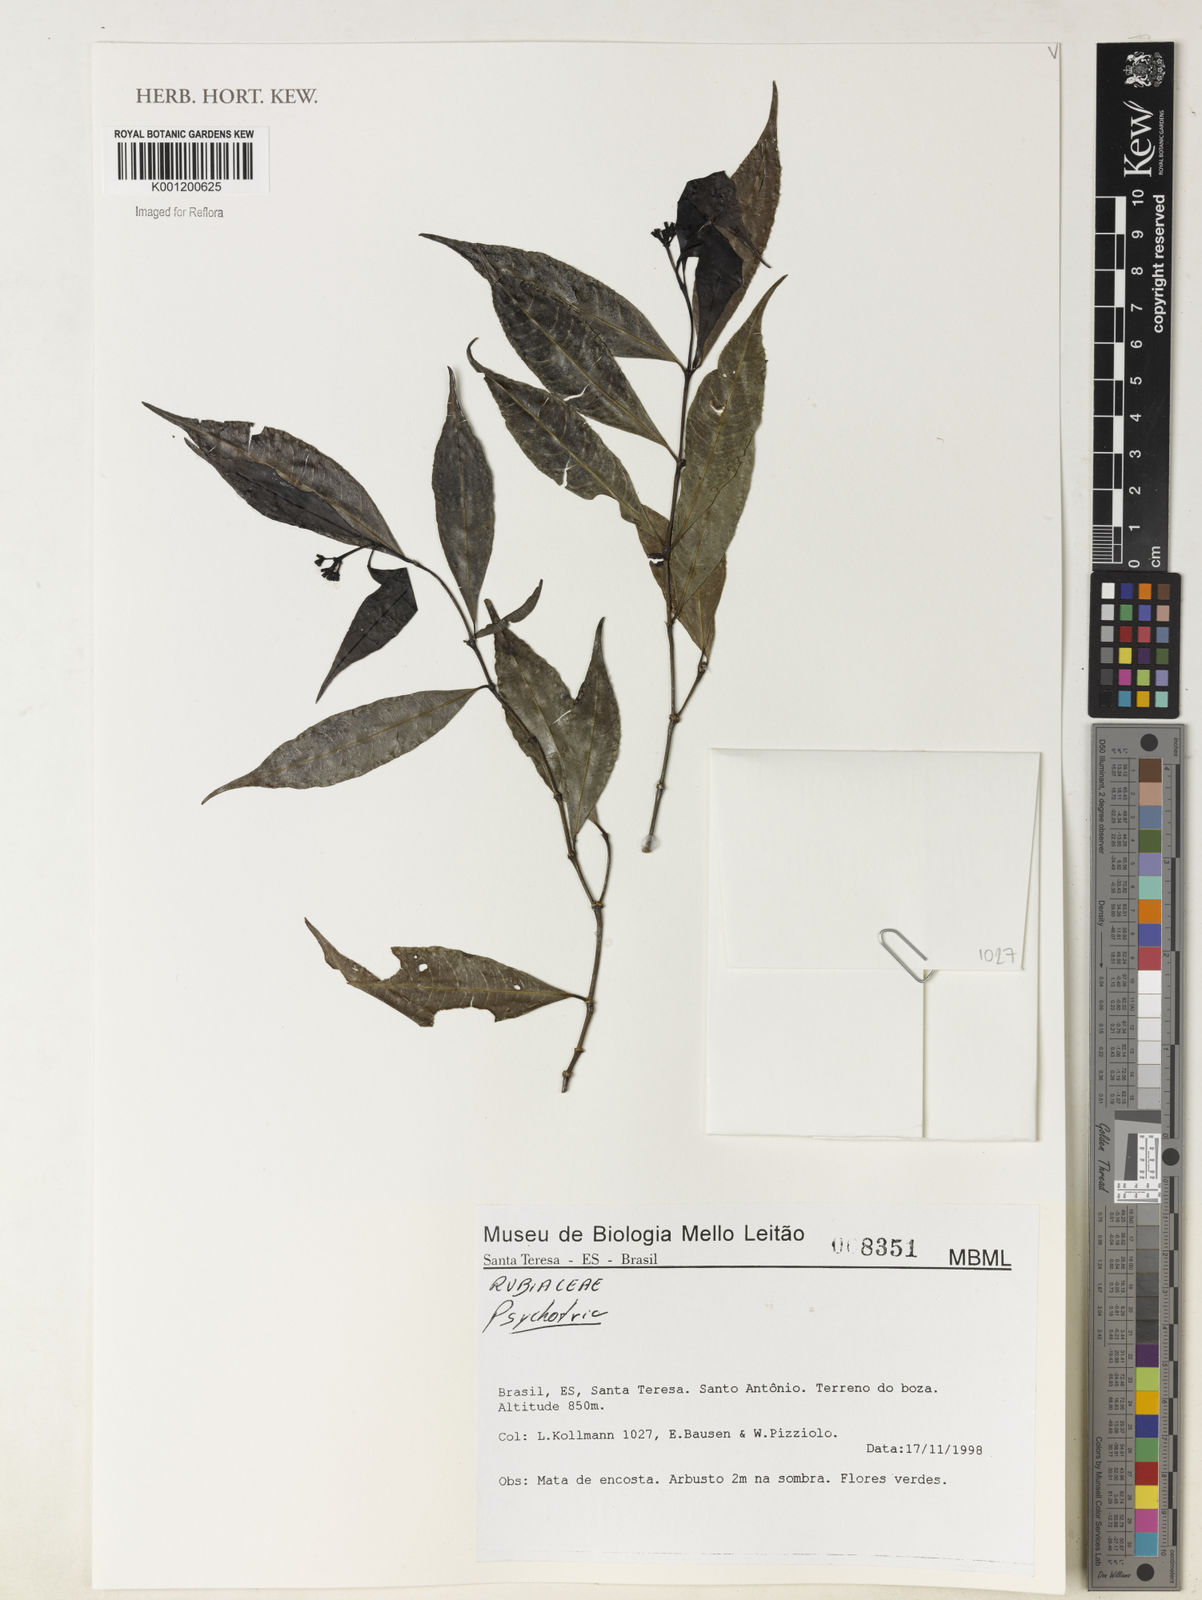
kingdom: Plantae
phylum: Tracheophyta
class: Magnoliopsida
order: Gentianales
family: Rubiaceae
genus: Psychotria
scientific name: Psychotria
